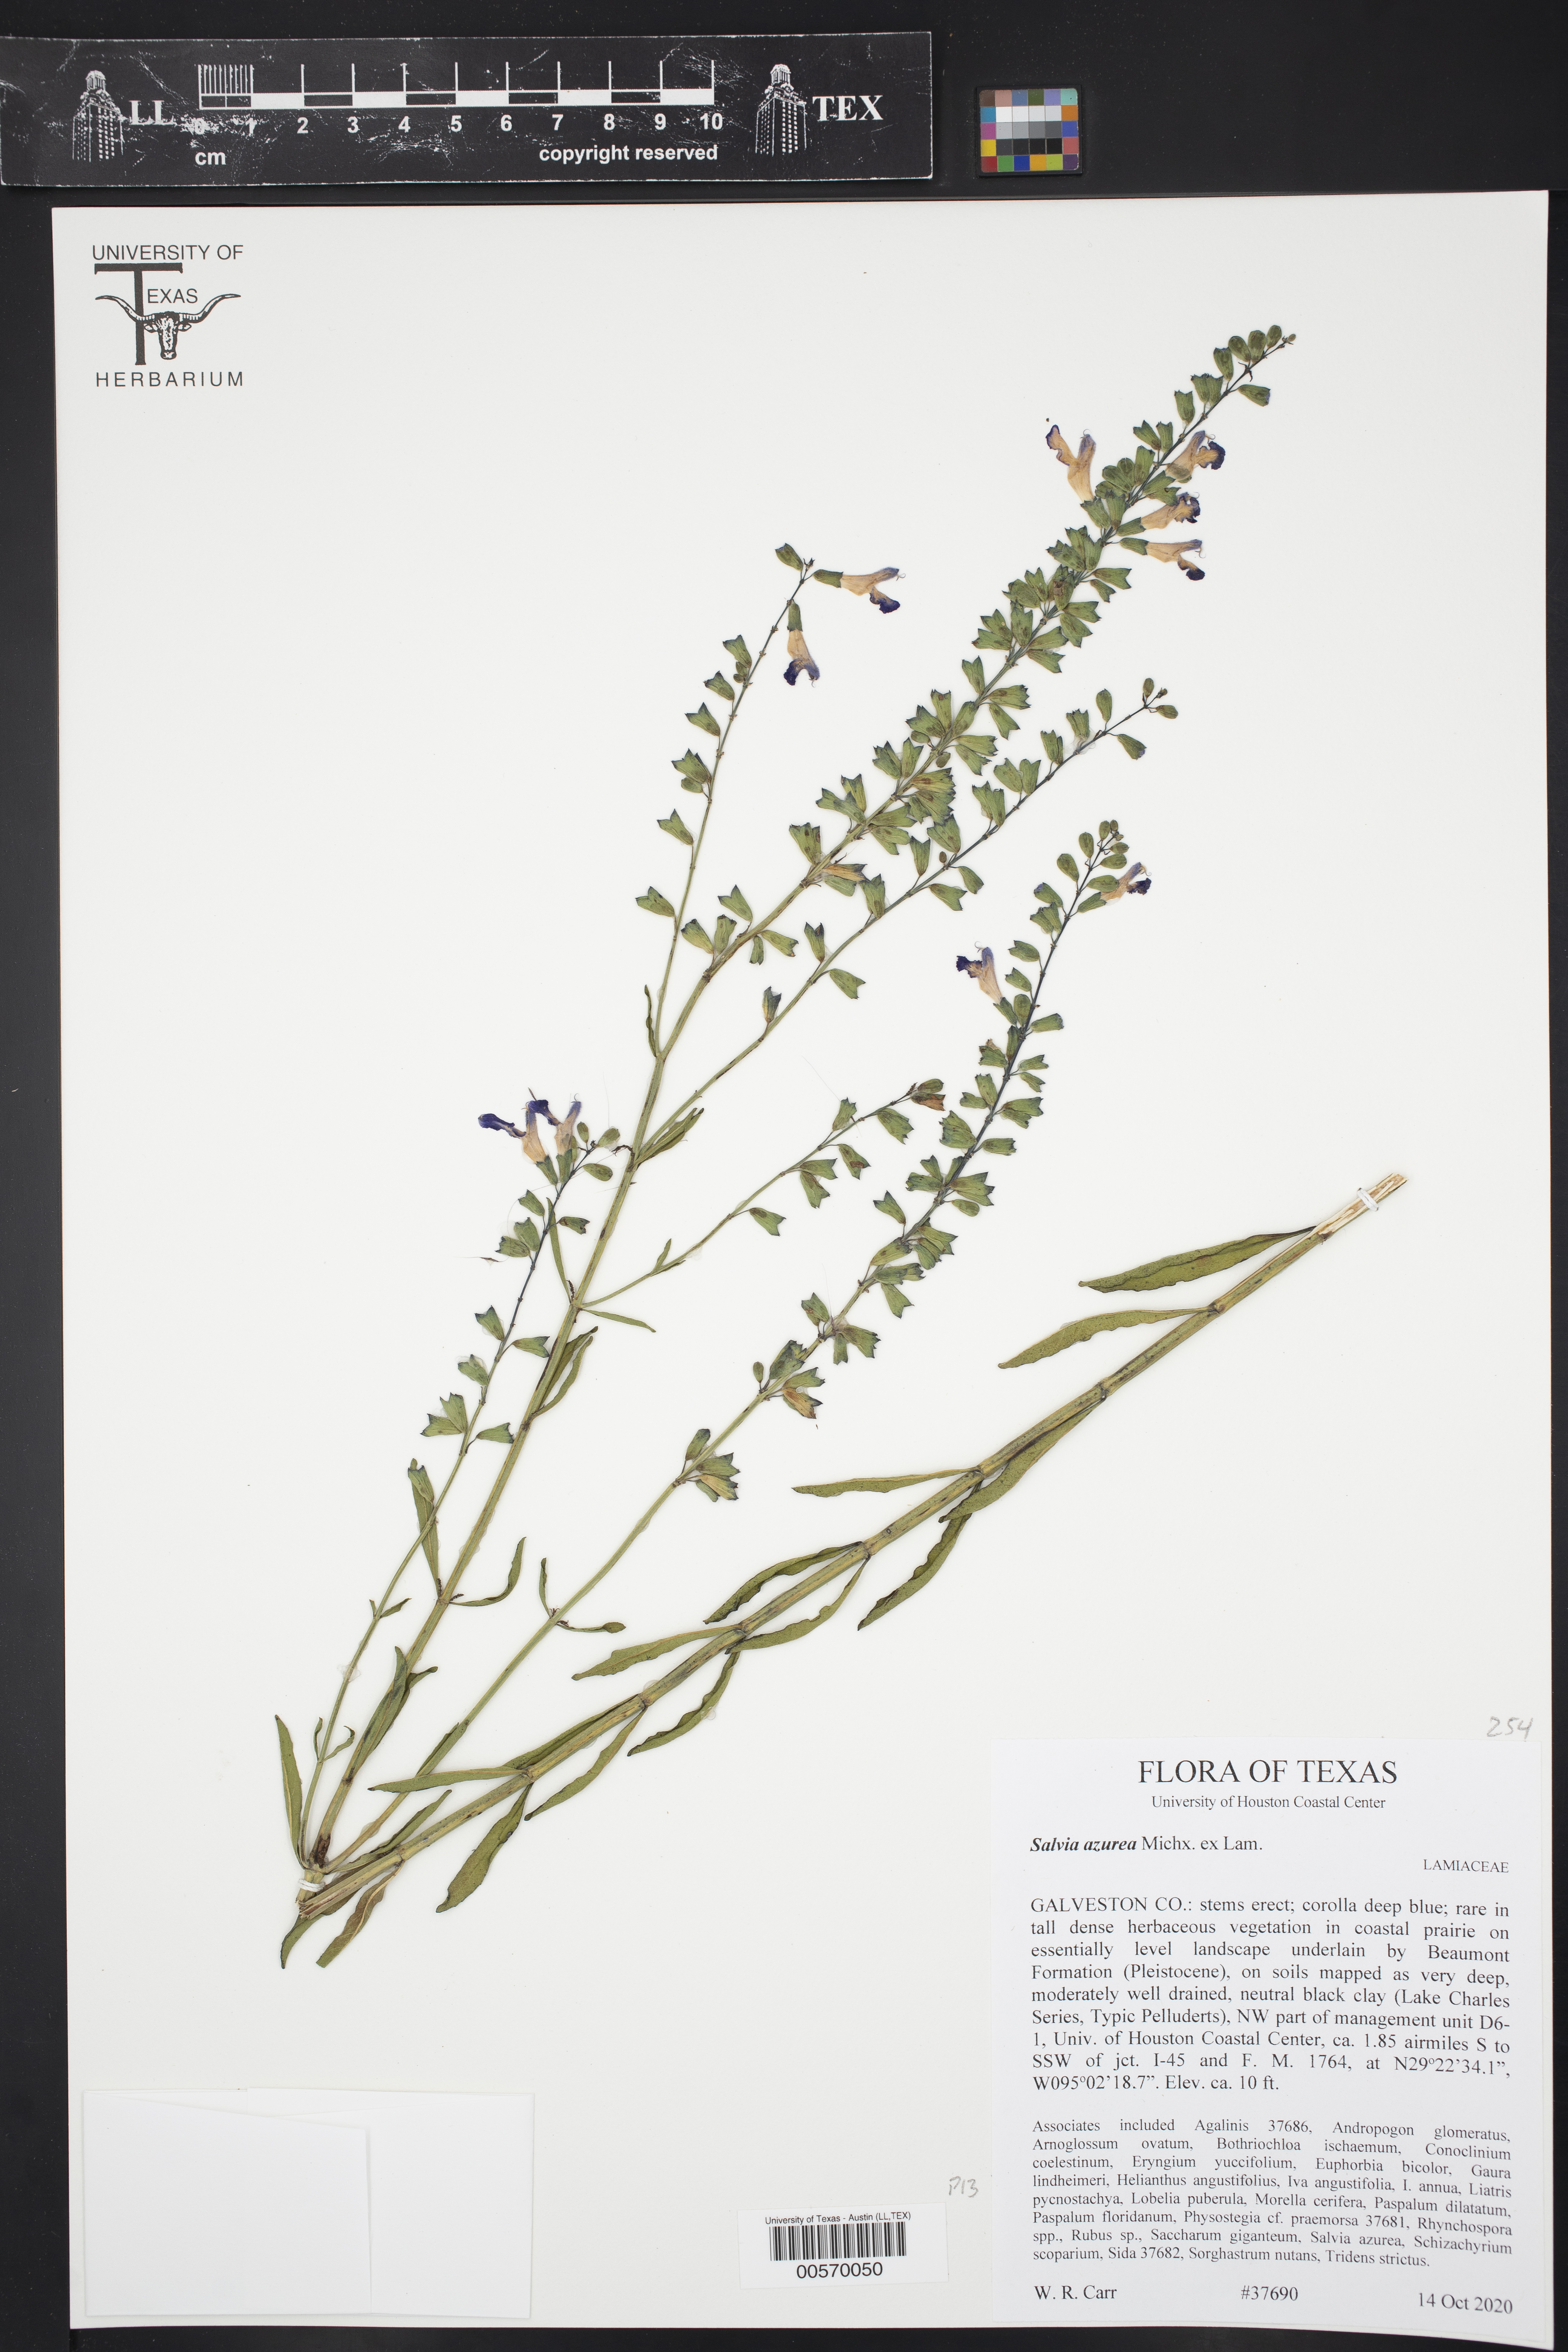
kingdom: Plantae
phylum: Tracheophyta
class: Magnoliopsida
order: Lamiales
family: Lamiaceae
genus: Salvia
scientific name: Salvia azurea
